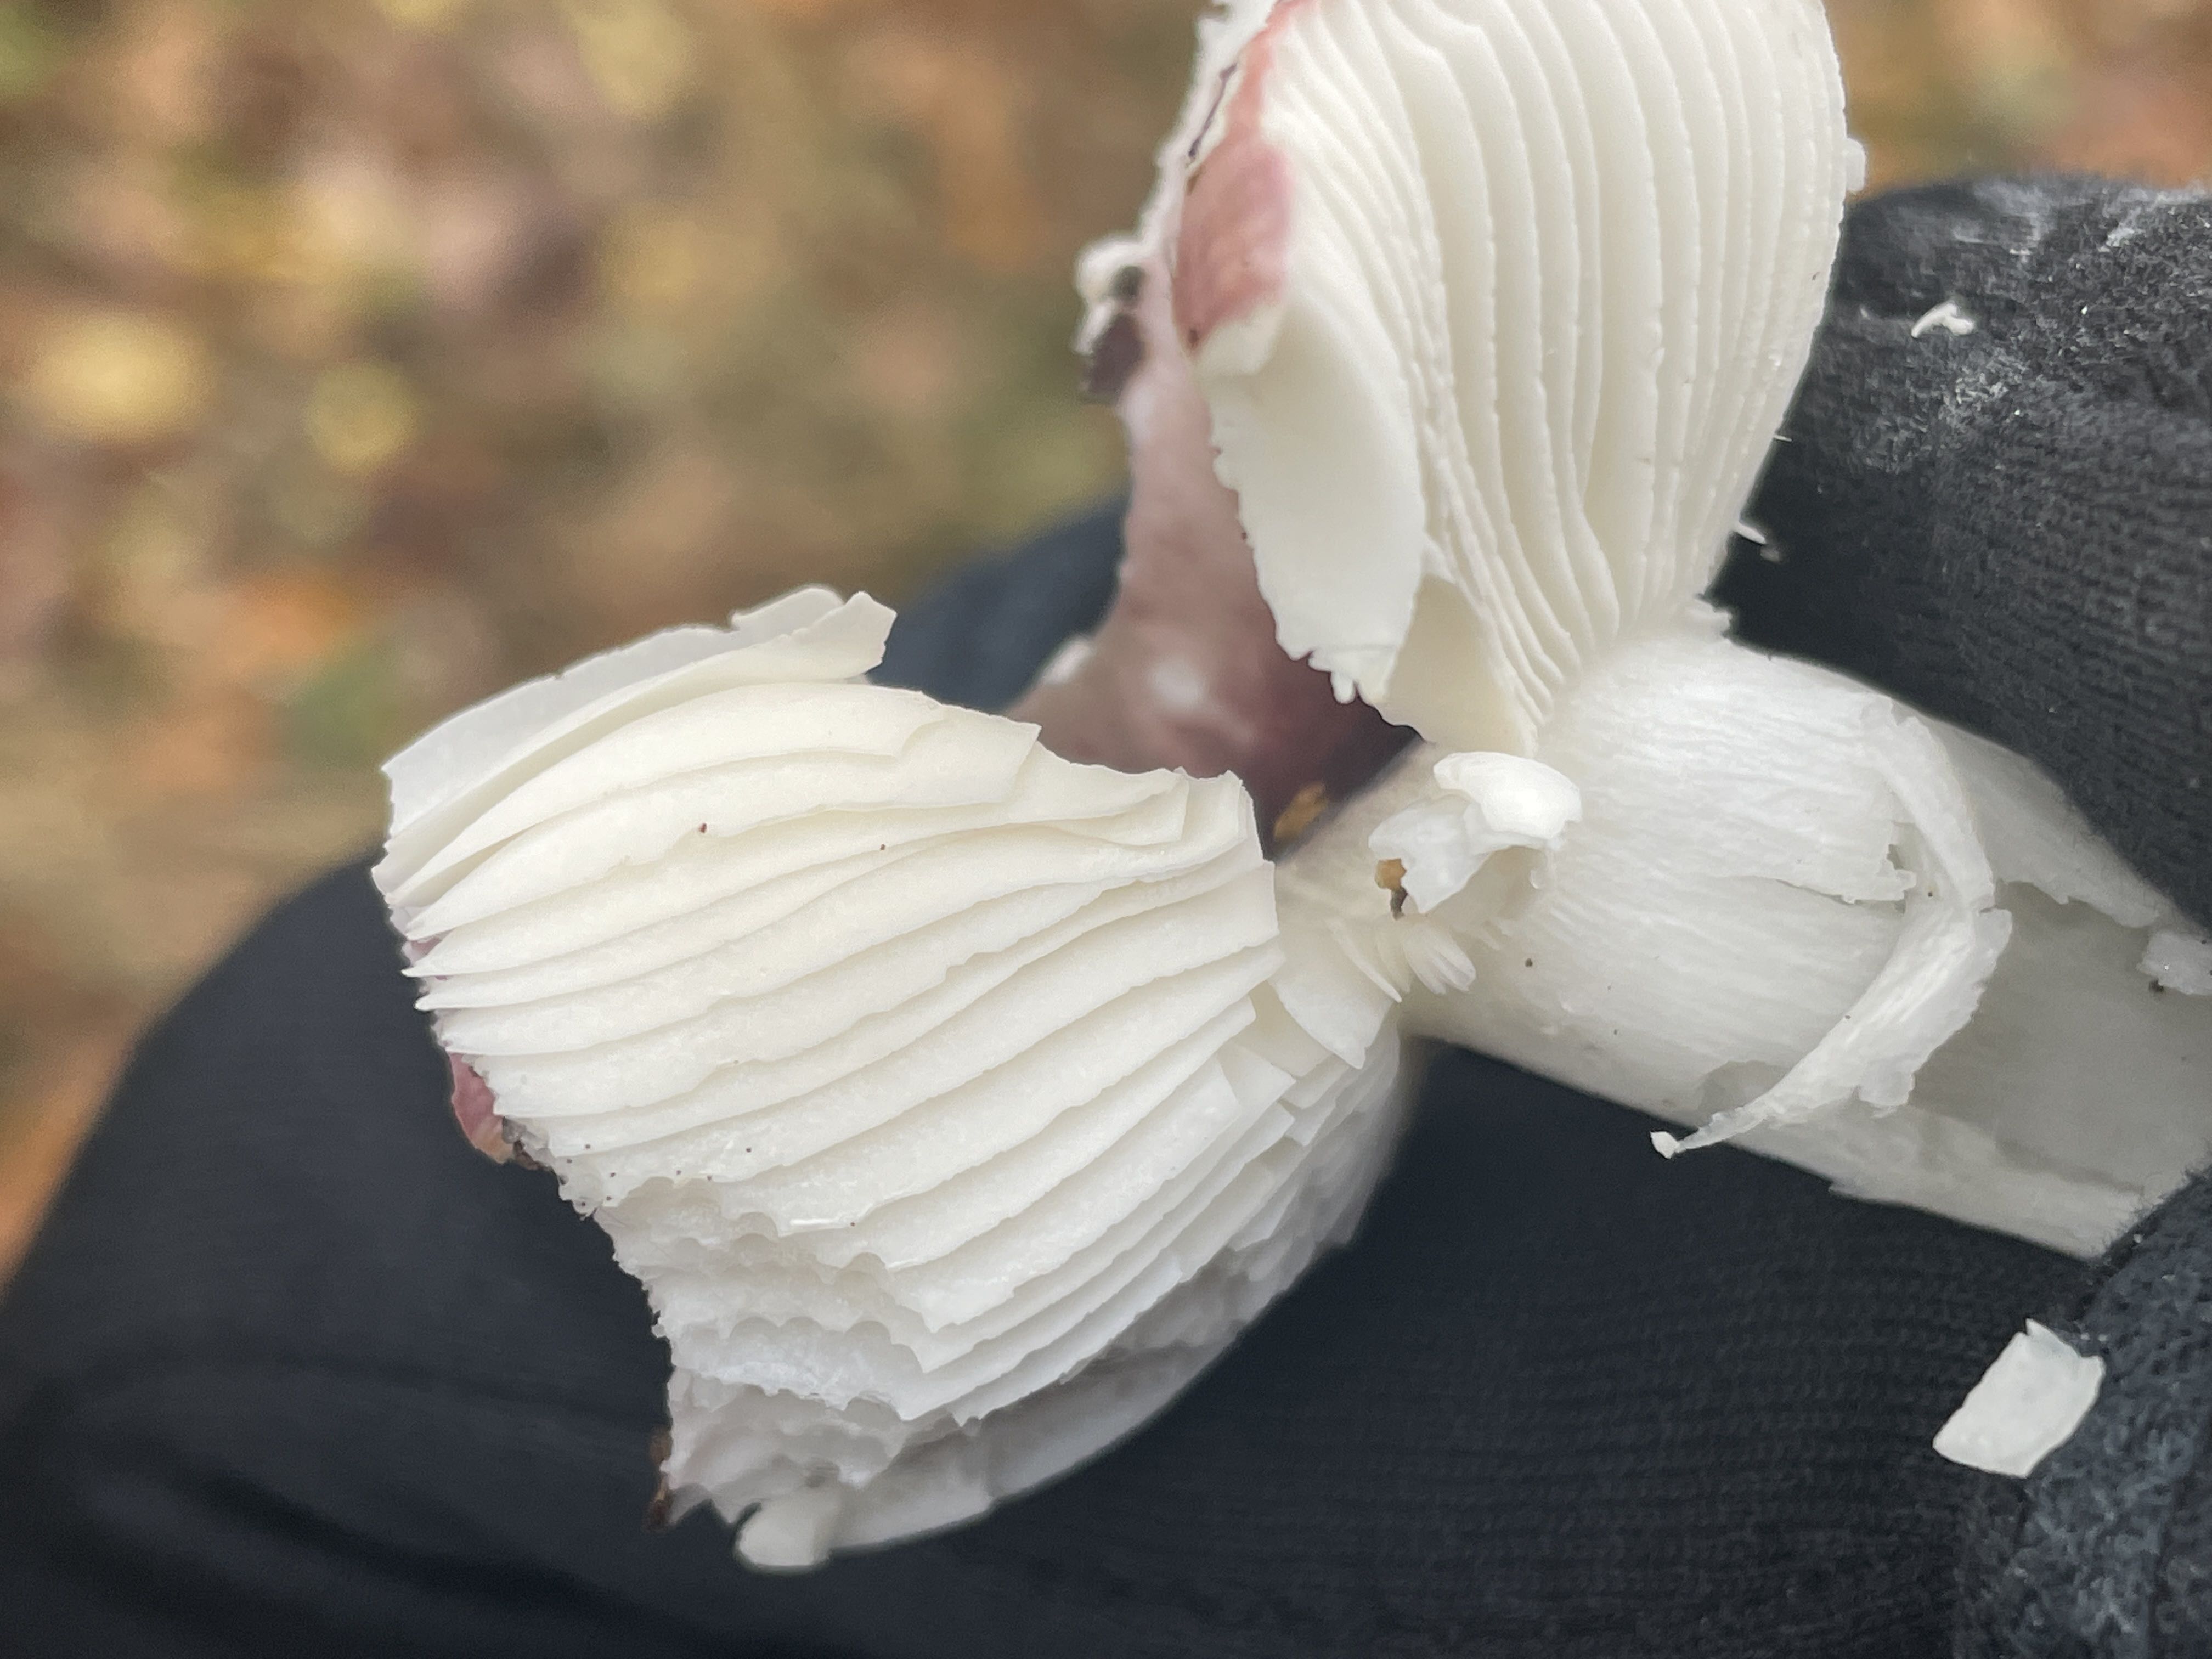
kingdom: Fungi
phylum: Basidiomycota
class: Agaricomycetes
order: Russulales
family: Russulaceae
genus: Russula
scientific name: Russula fragilis
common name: savbladet skørhat
